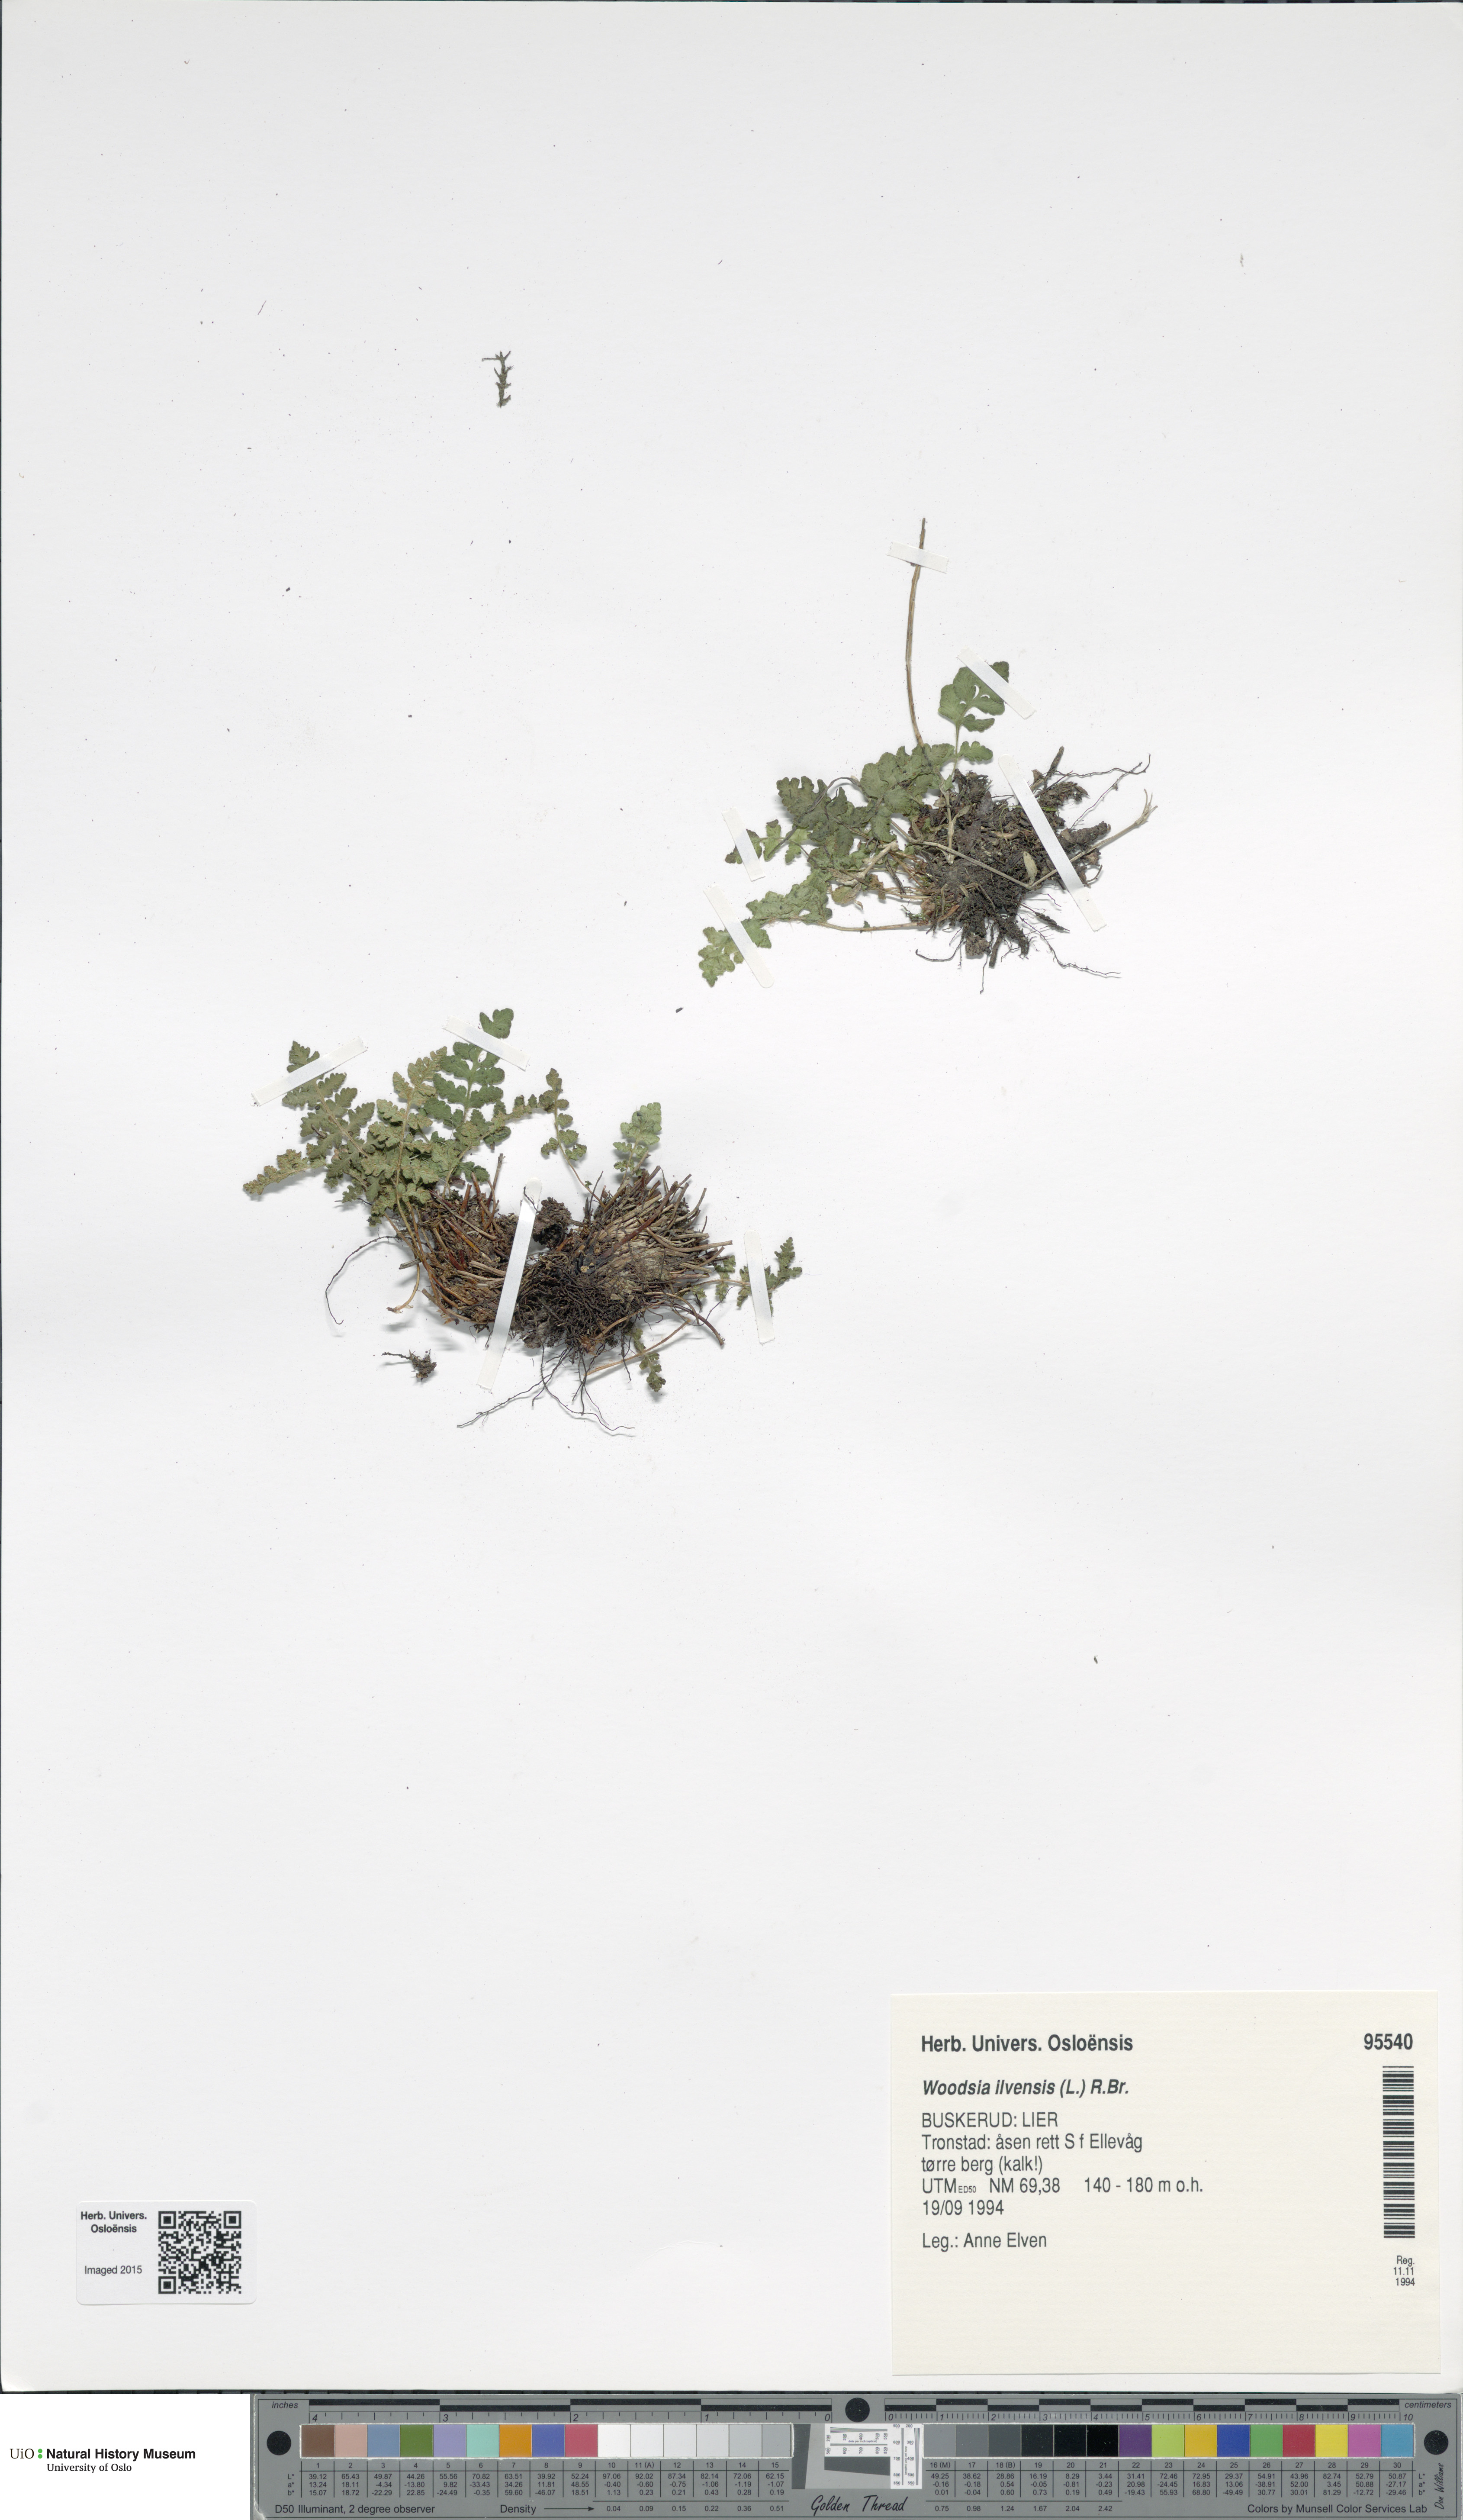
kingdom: Plantae
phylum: Tracheophyta
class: Polypodiopsida
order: Polypodiales
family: Woodsiaceae
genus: Woodsia
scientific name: Woodsia ilvensis
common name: Fragrant woodsia
